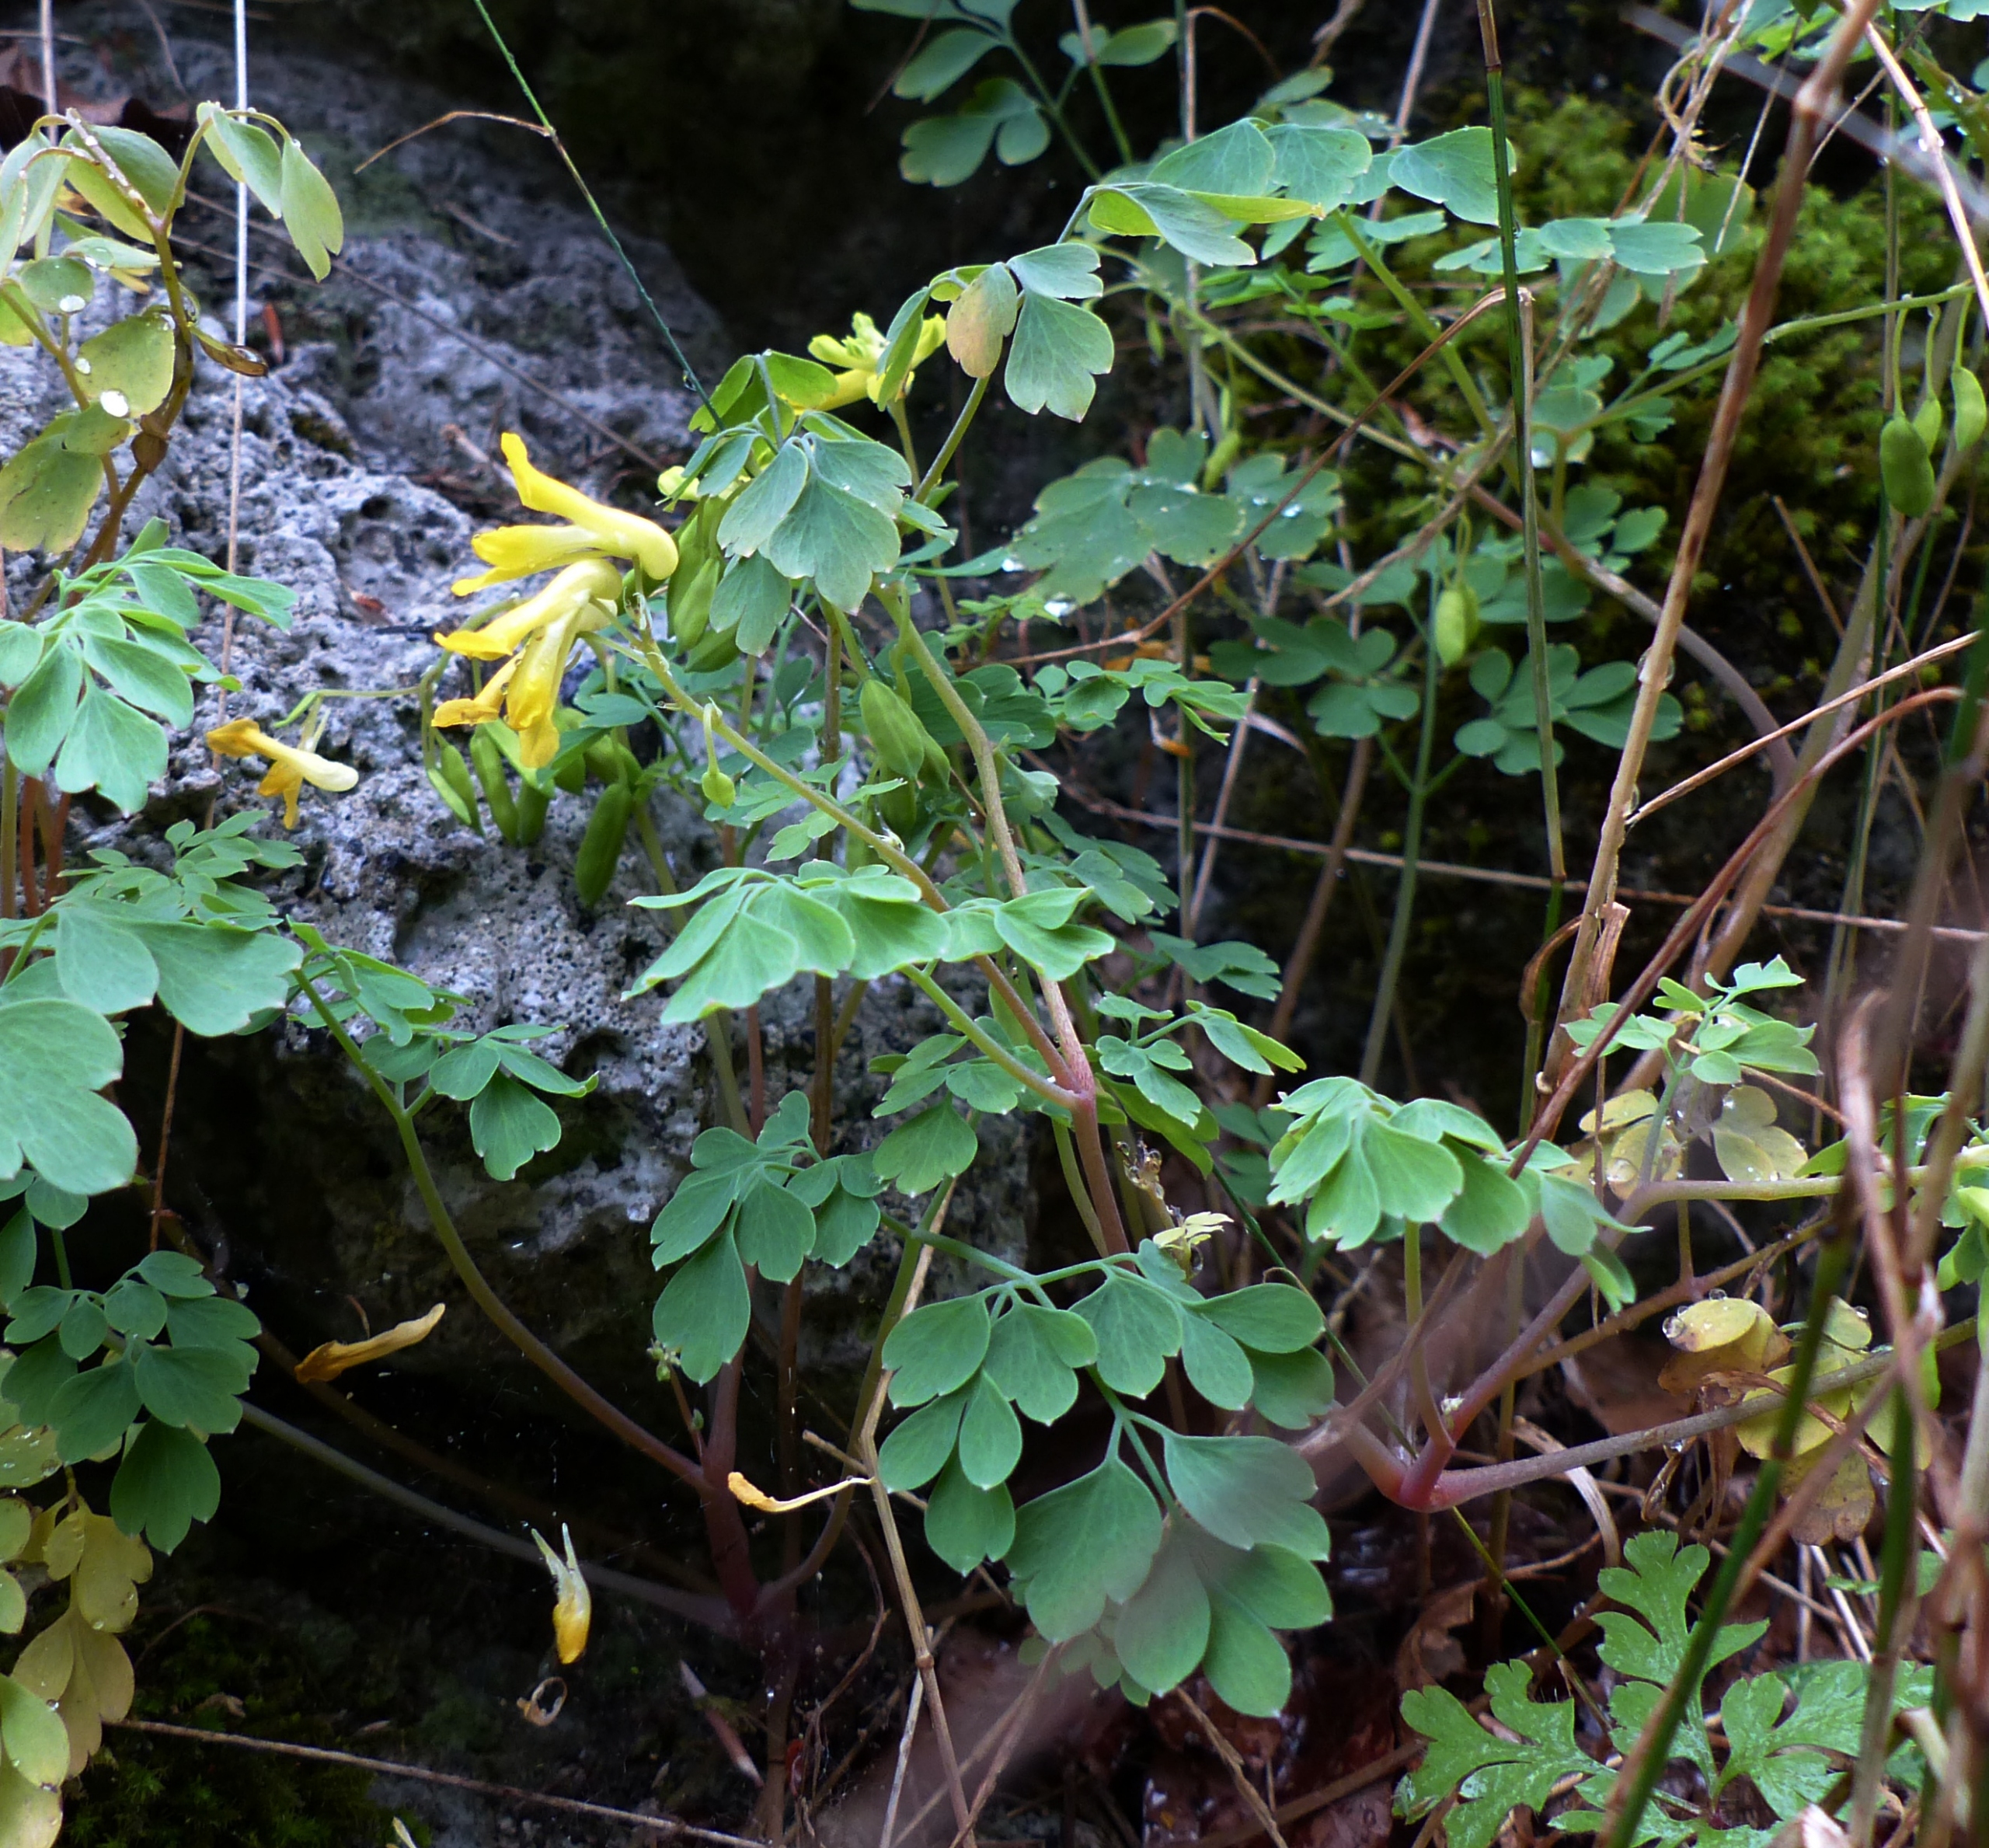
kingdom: Plantae
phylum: Tracheophyta
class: Magnoliopsida
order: Ranunculales
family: Papaveraceae
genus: Pseudofumaria
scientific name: Pseudofumaria lutea
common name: Gul lærkespore
